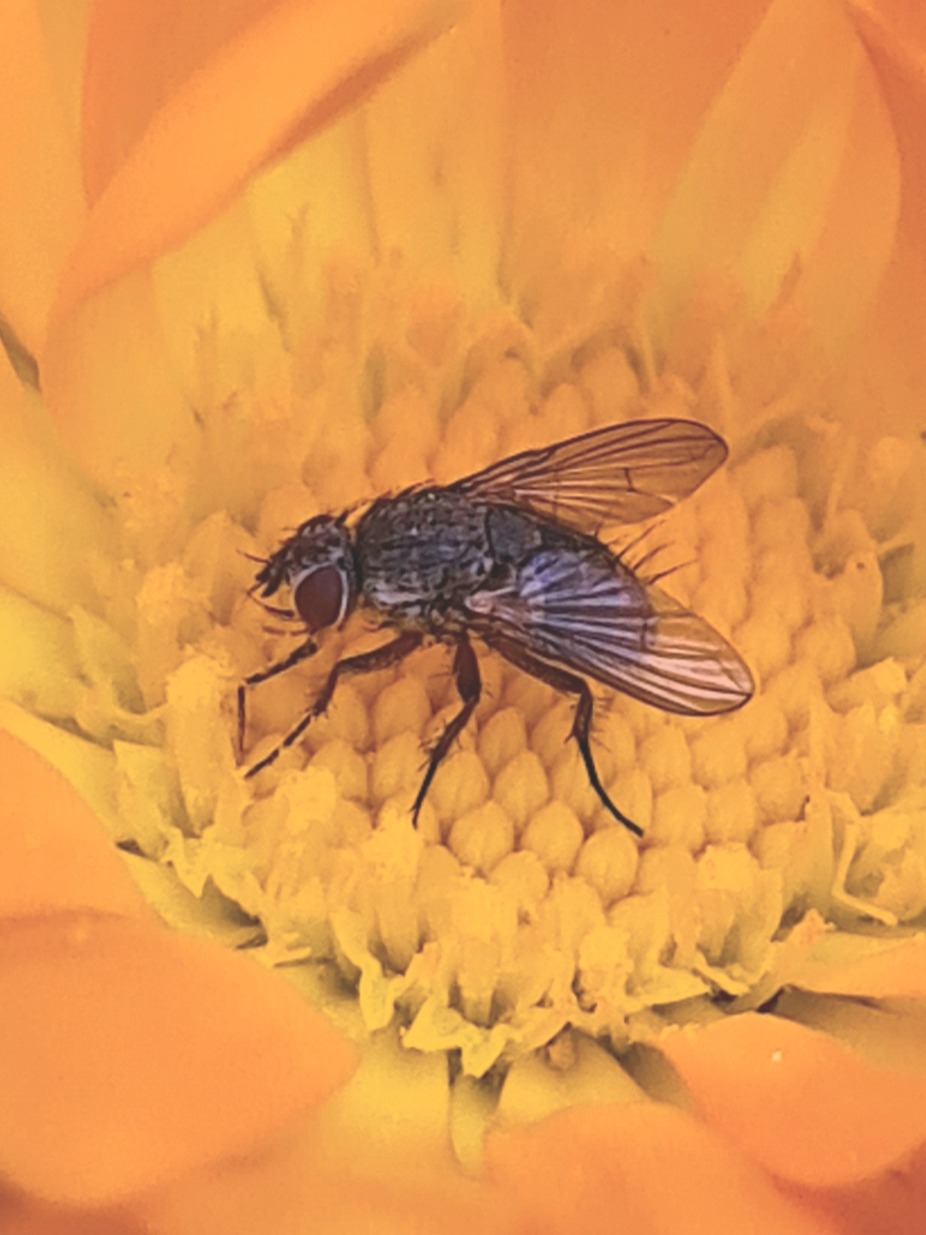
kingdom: Animalia
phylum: Arthropoda
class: Insecta
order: Diptera
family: Tachinidae
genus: Siphona
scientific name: Siphona
